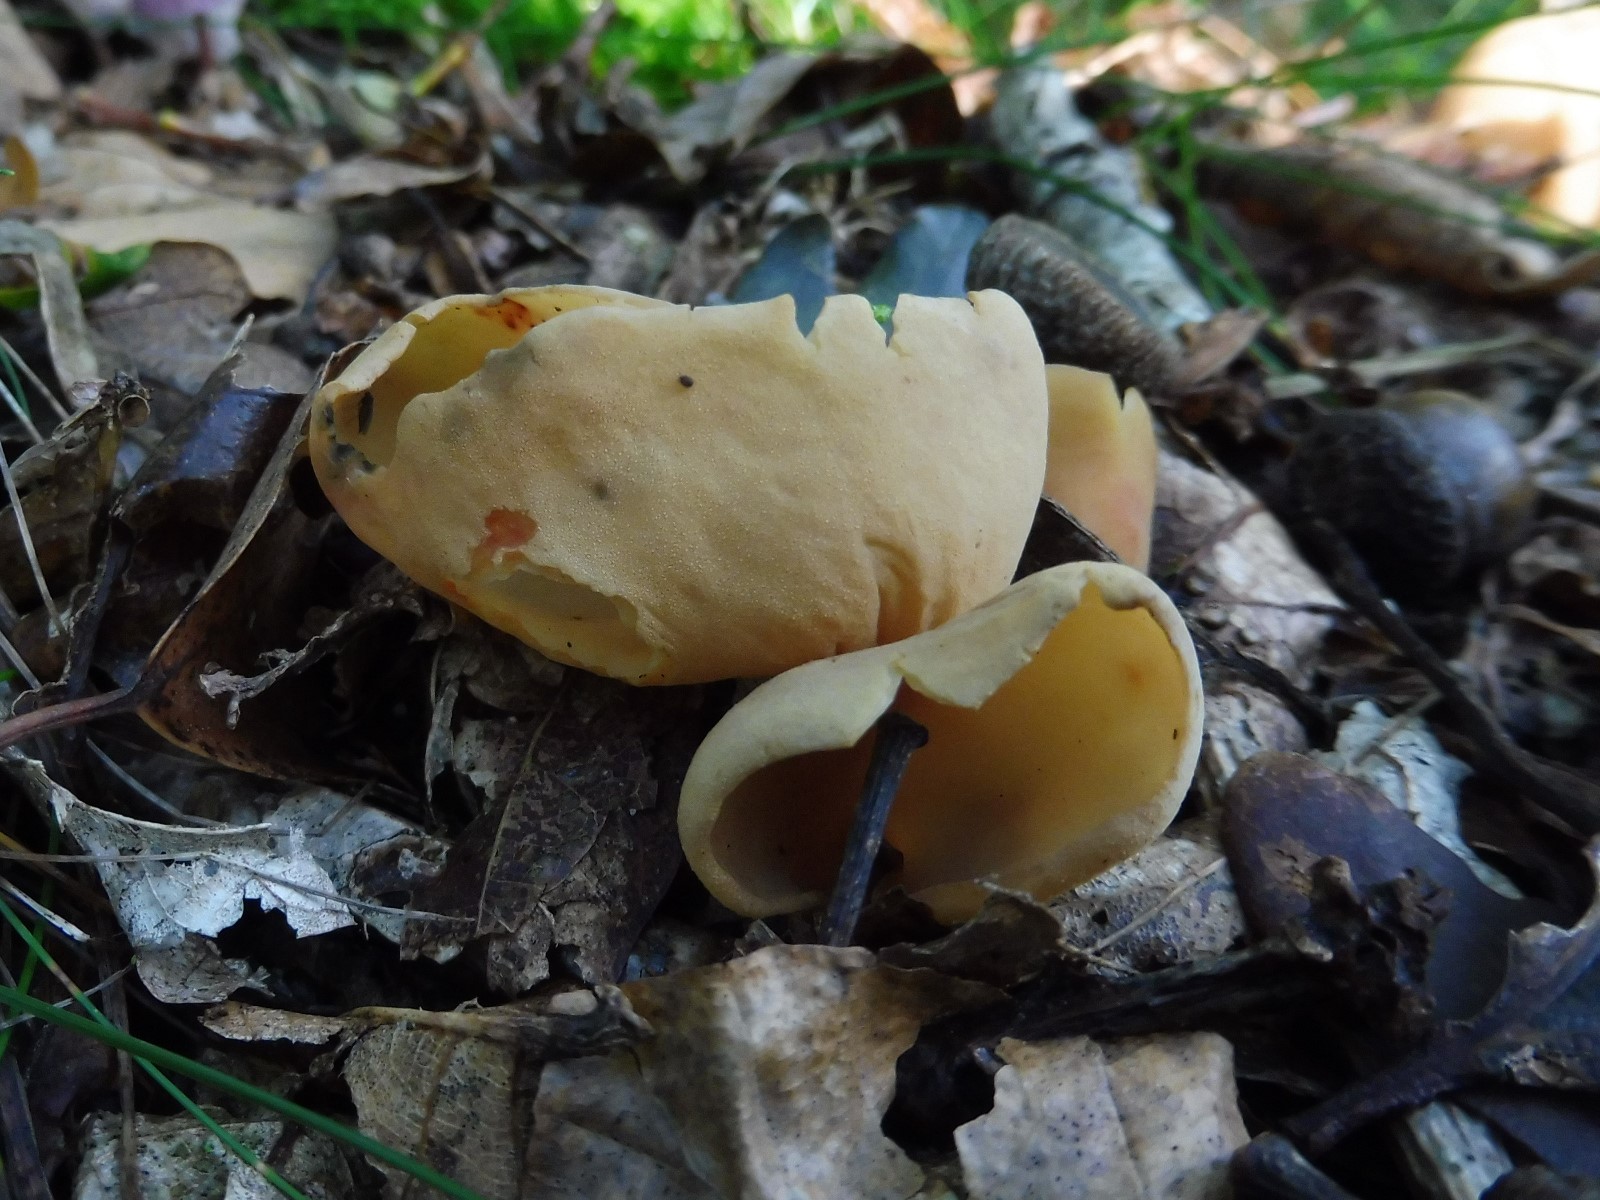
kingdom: Fungi
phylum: Ascomycota
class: Pezizomycetes
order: Pezizales
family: Otideaceae
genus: Otidea
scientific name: Otidea onotica
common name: æsel-ørebæger
